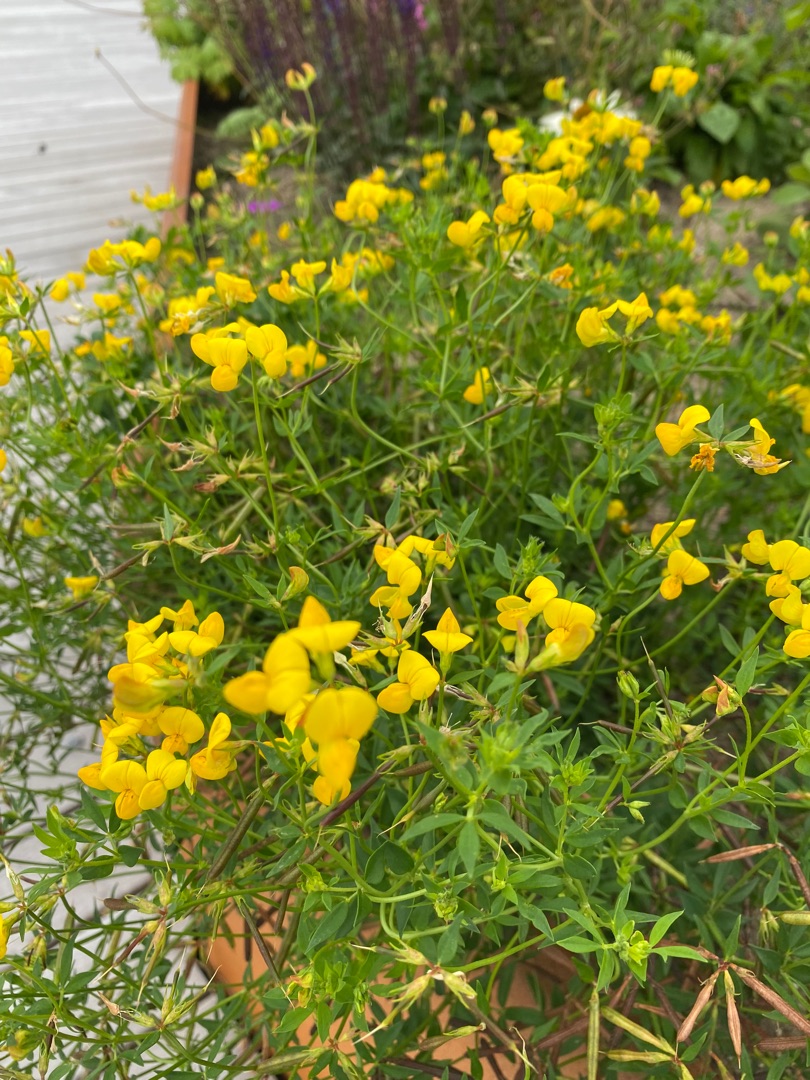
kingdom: Plantae
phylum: Tracheophyta
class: Magnoliopsida
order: Fabales
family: Fabaceae
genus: Lotus
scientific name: Lotus corniculatus
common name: Almindelig kællingetand
